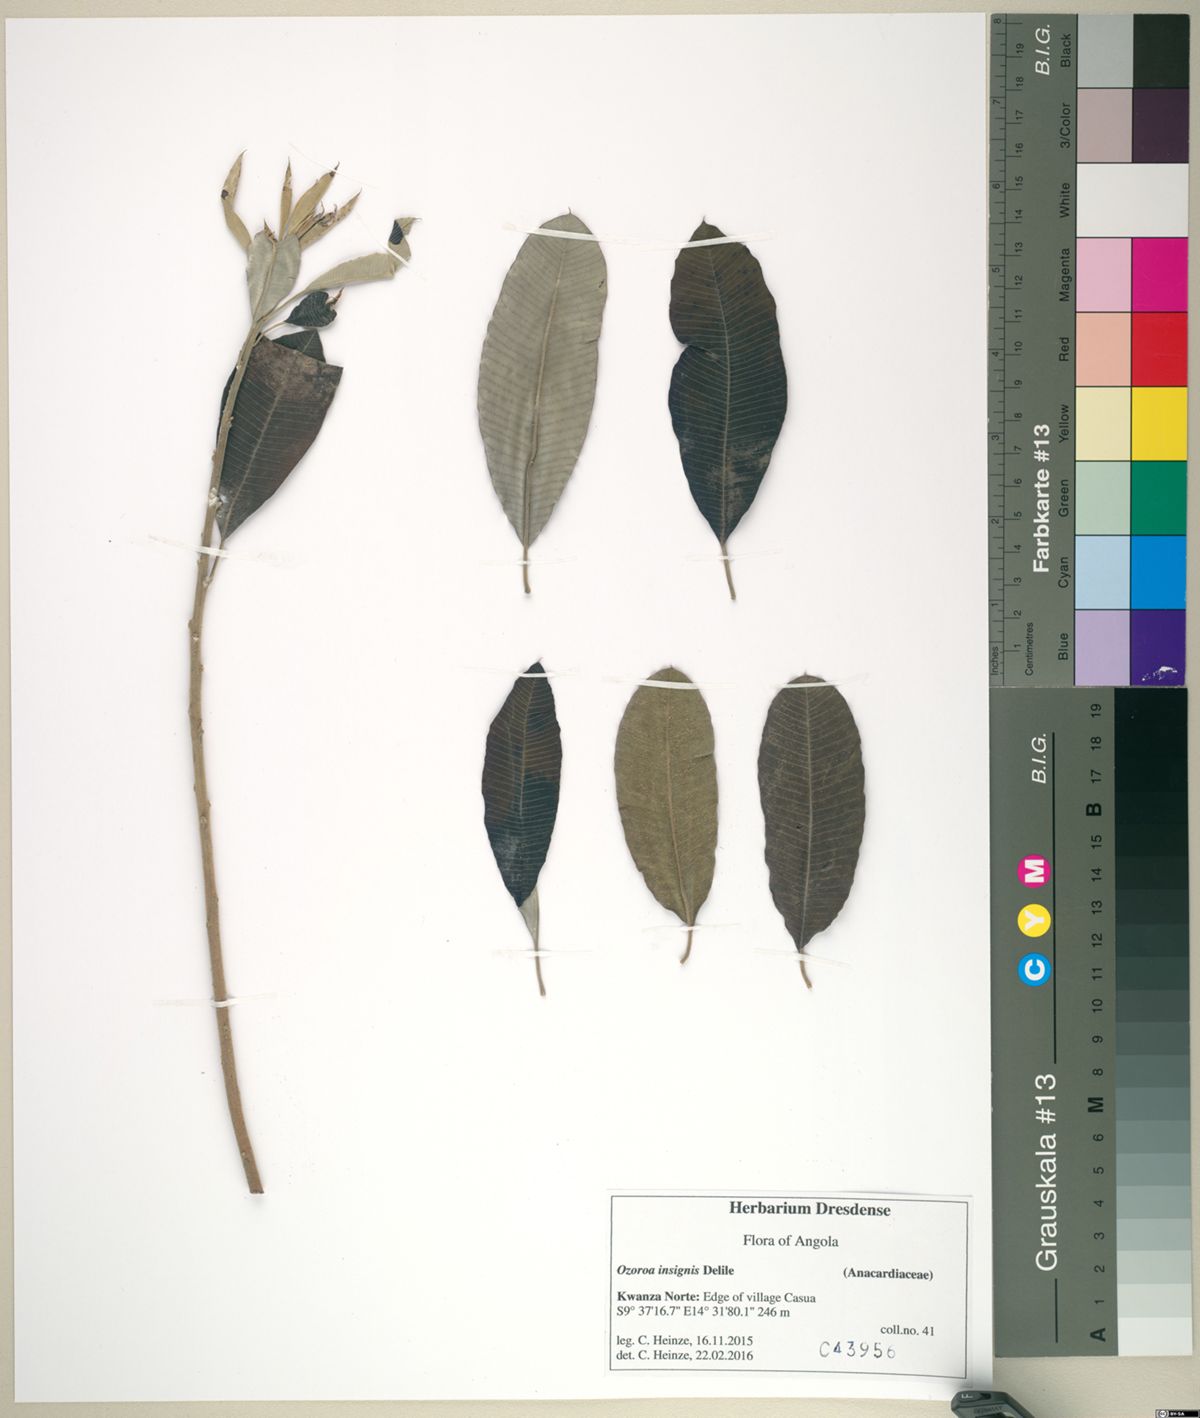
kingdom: Plantae
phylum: Tracheophyta
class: Magnoliopsida
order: Sapindales
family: Anacardiaceae
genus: Ozoroa
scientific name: Ozoroa insignis
